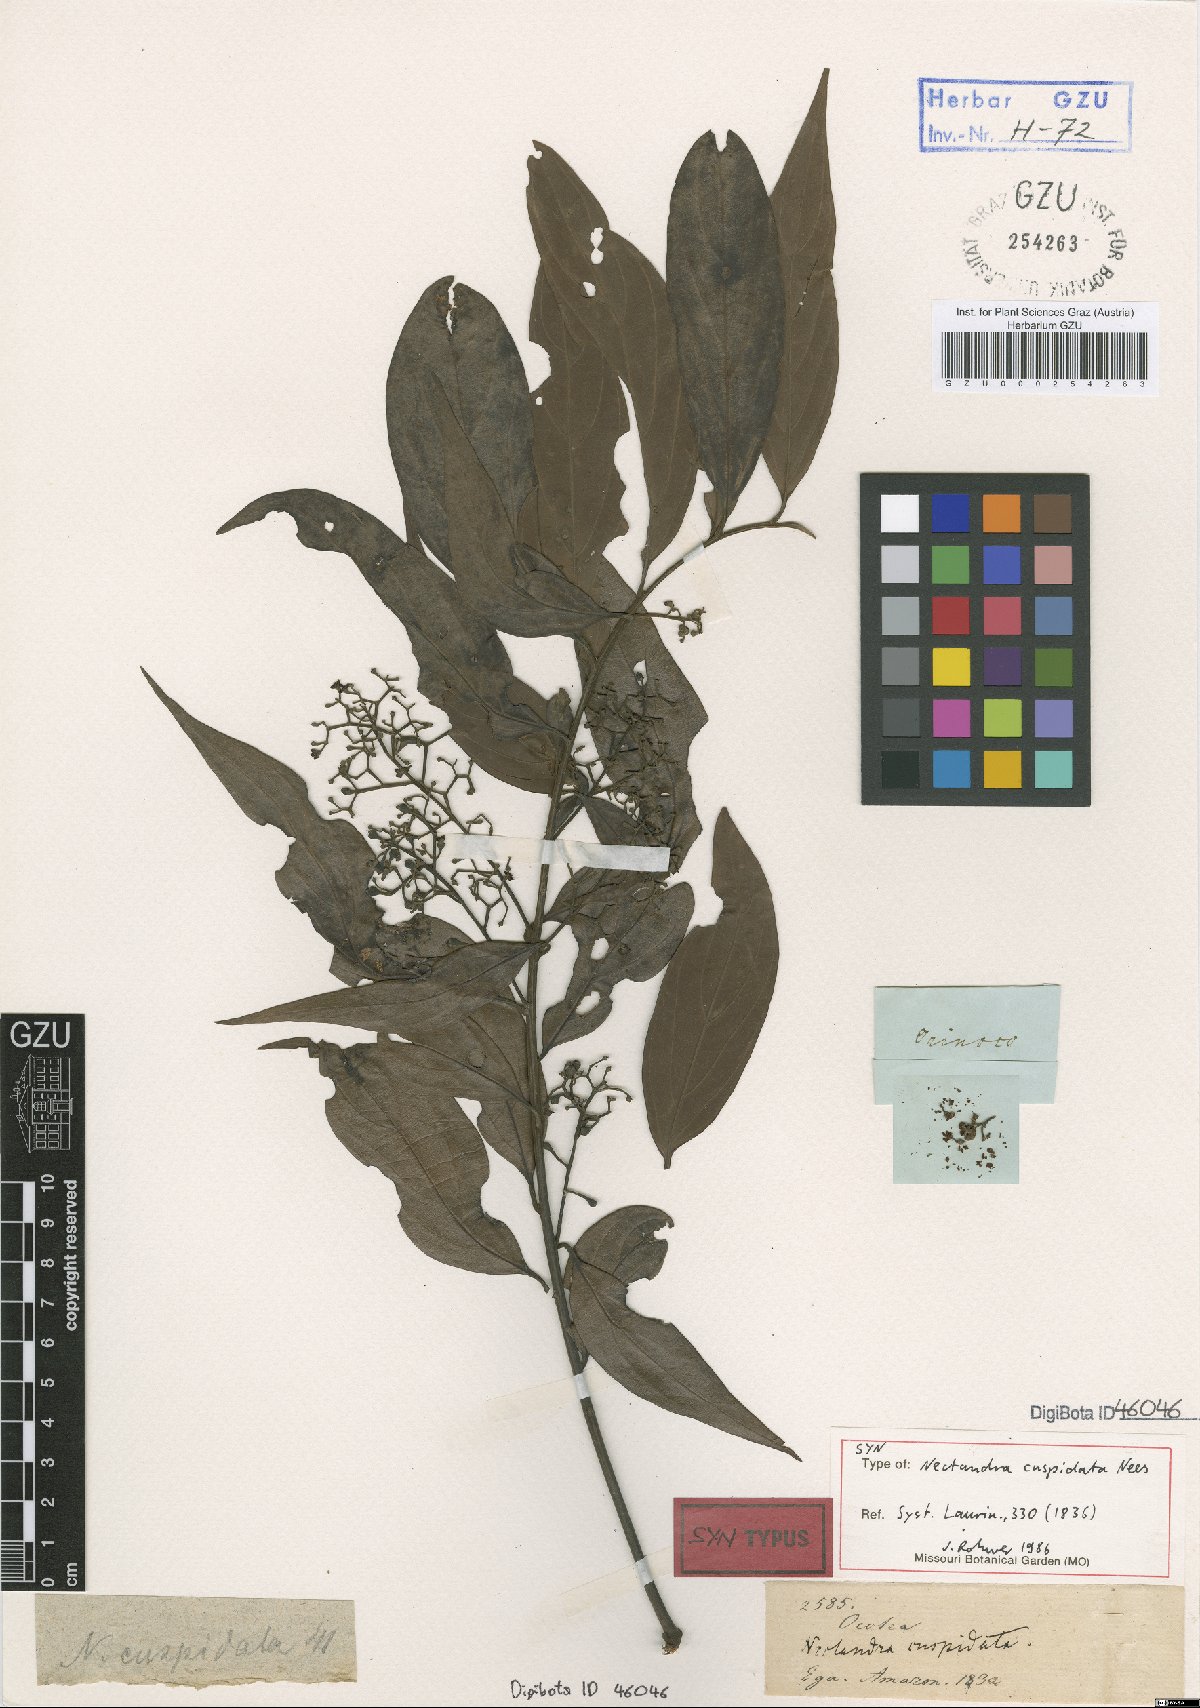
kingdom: Plantae
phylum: Tracheophyta
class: Magnoliopsida
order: Laurales
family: Lauraceae
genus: Nectandra
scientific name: Nectandra cuspidata
